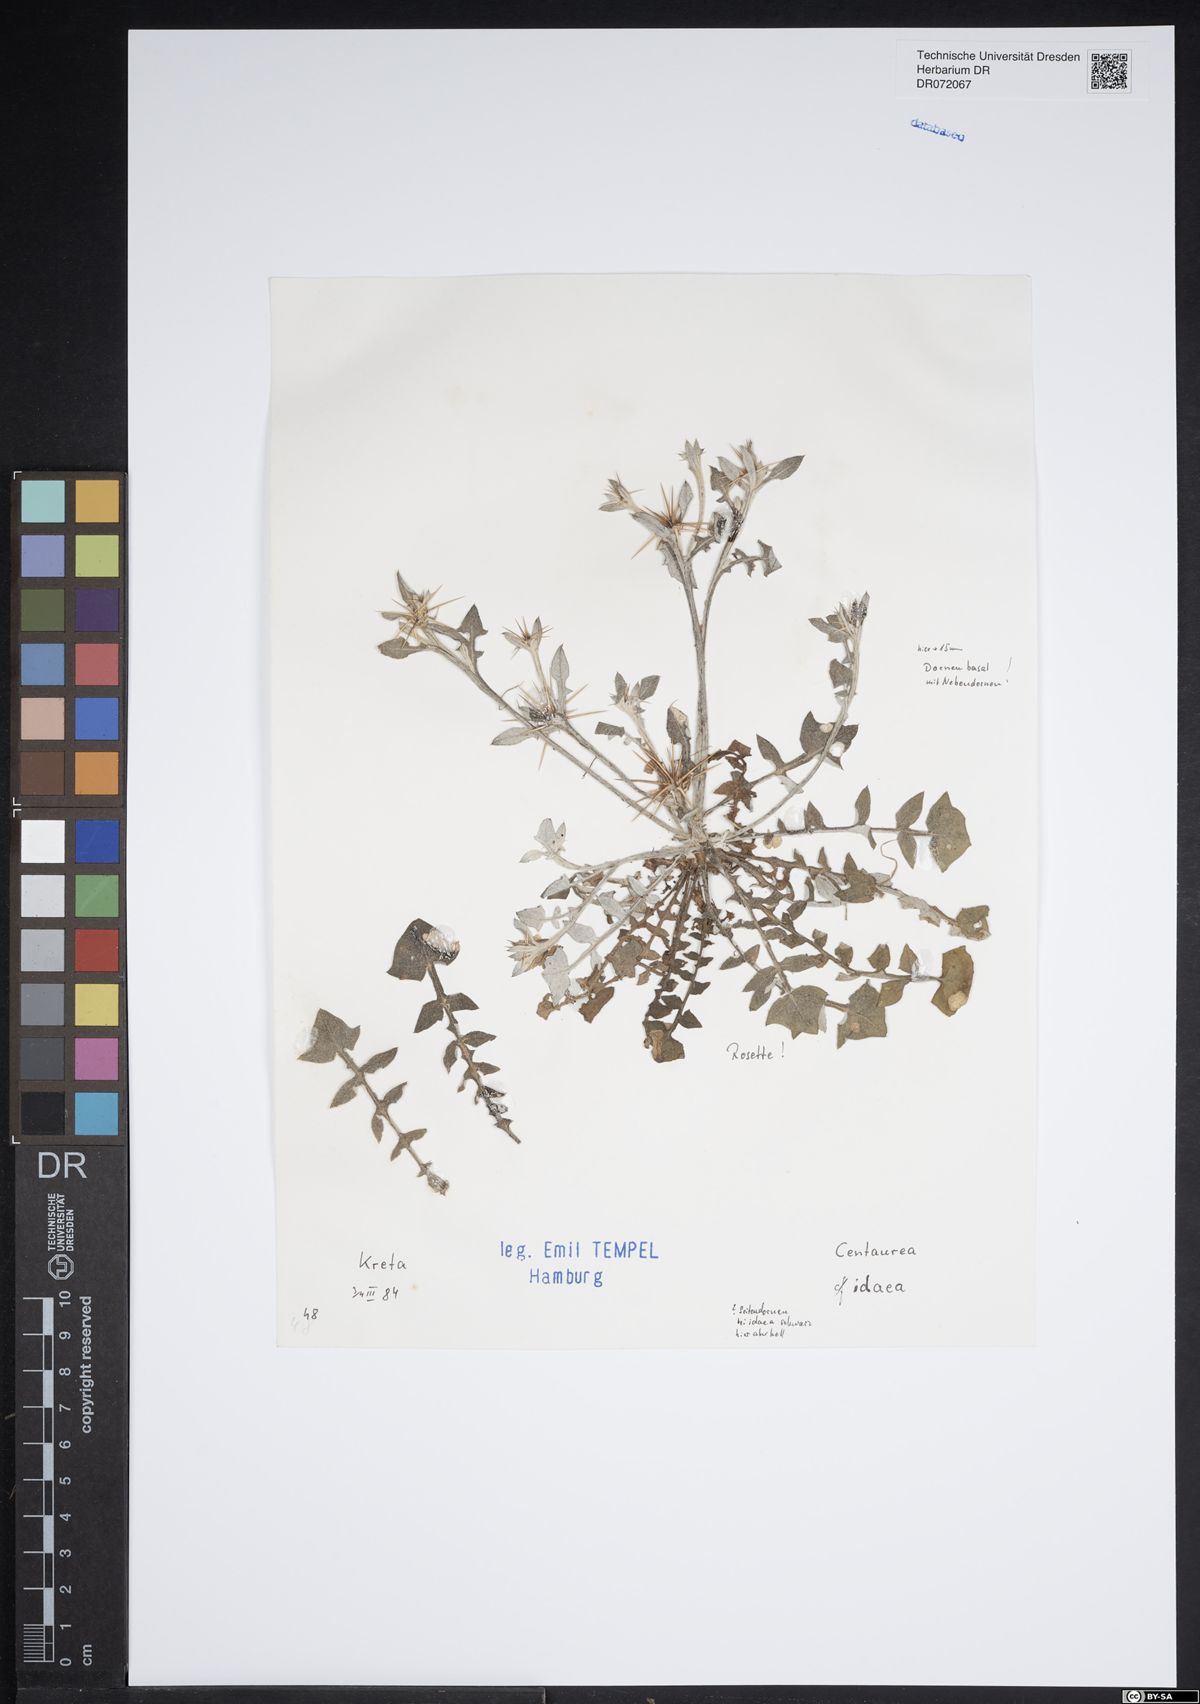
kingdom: Plantae
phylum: Tracheophyta
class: Magnoliopsida
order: Asterales
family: Asteraceae
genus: Centaurea
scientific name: Centaurea idaea
